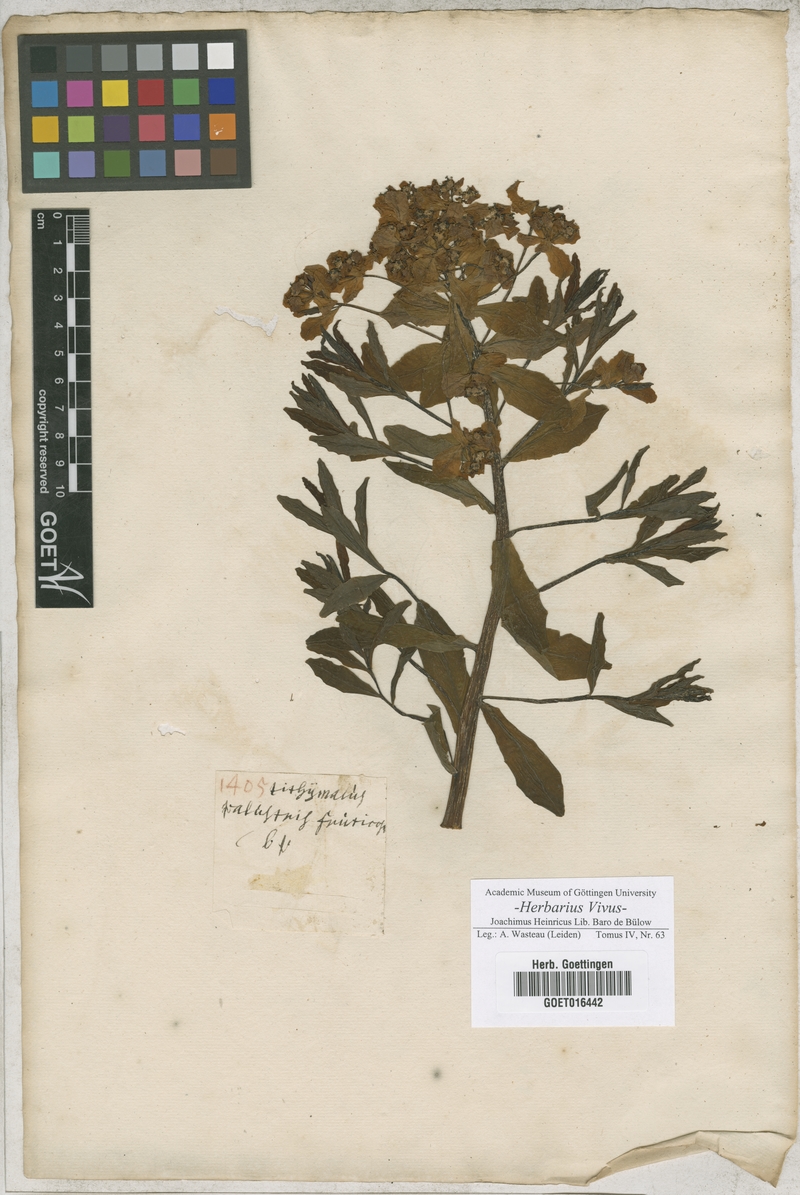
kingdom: Plantae
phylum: Tracheophyta
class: Magnoliopsida
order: Malpighiales
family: Euphorbiaceae
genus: Euphorbia
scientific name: Euphorbia palustris
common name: Marsh spurge
